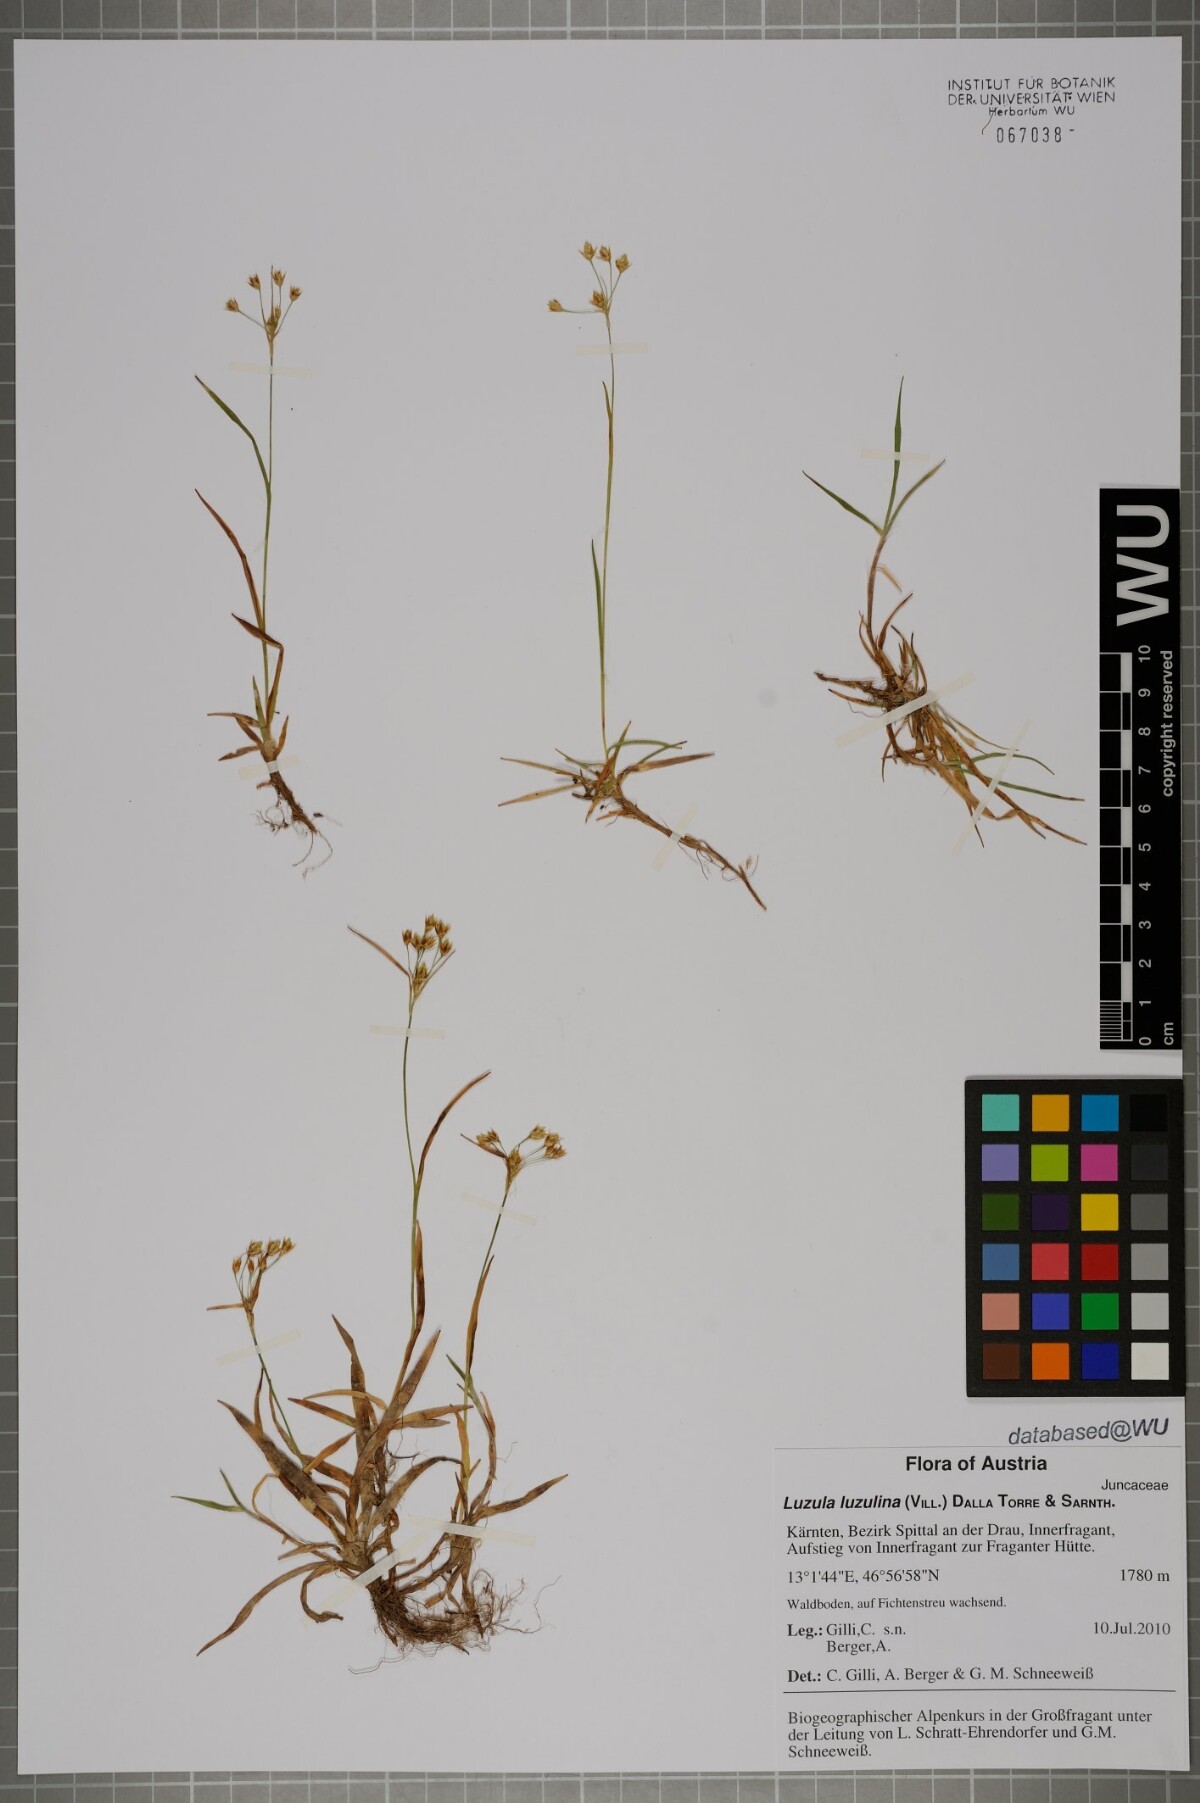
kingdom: Plantae
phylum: Tracheophyta
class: Liliopsida
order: Poales
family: Juncaceae
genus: Luzula
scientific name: Luzula luzulina
